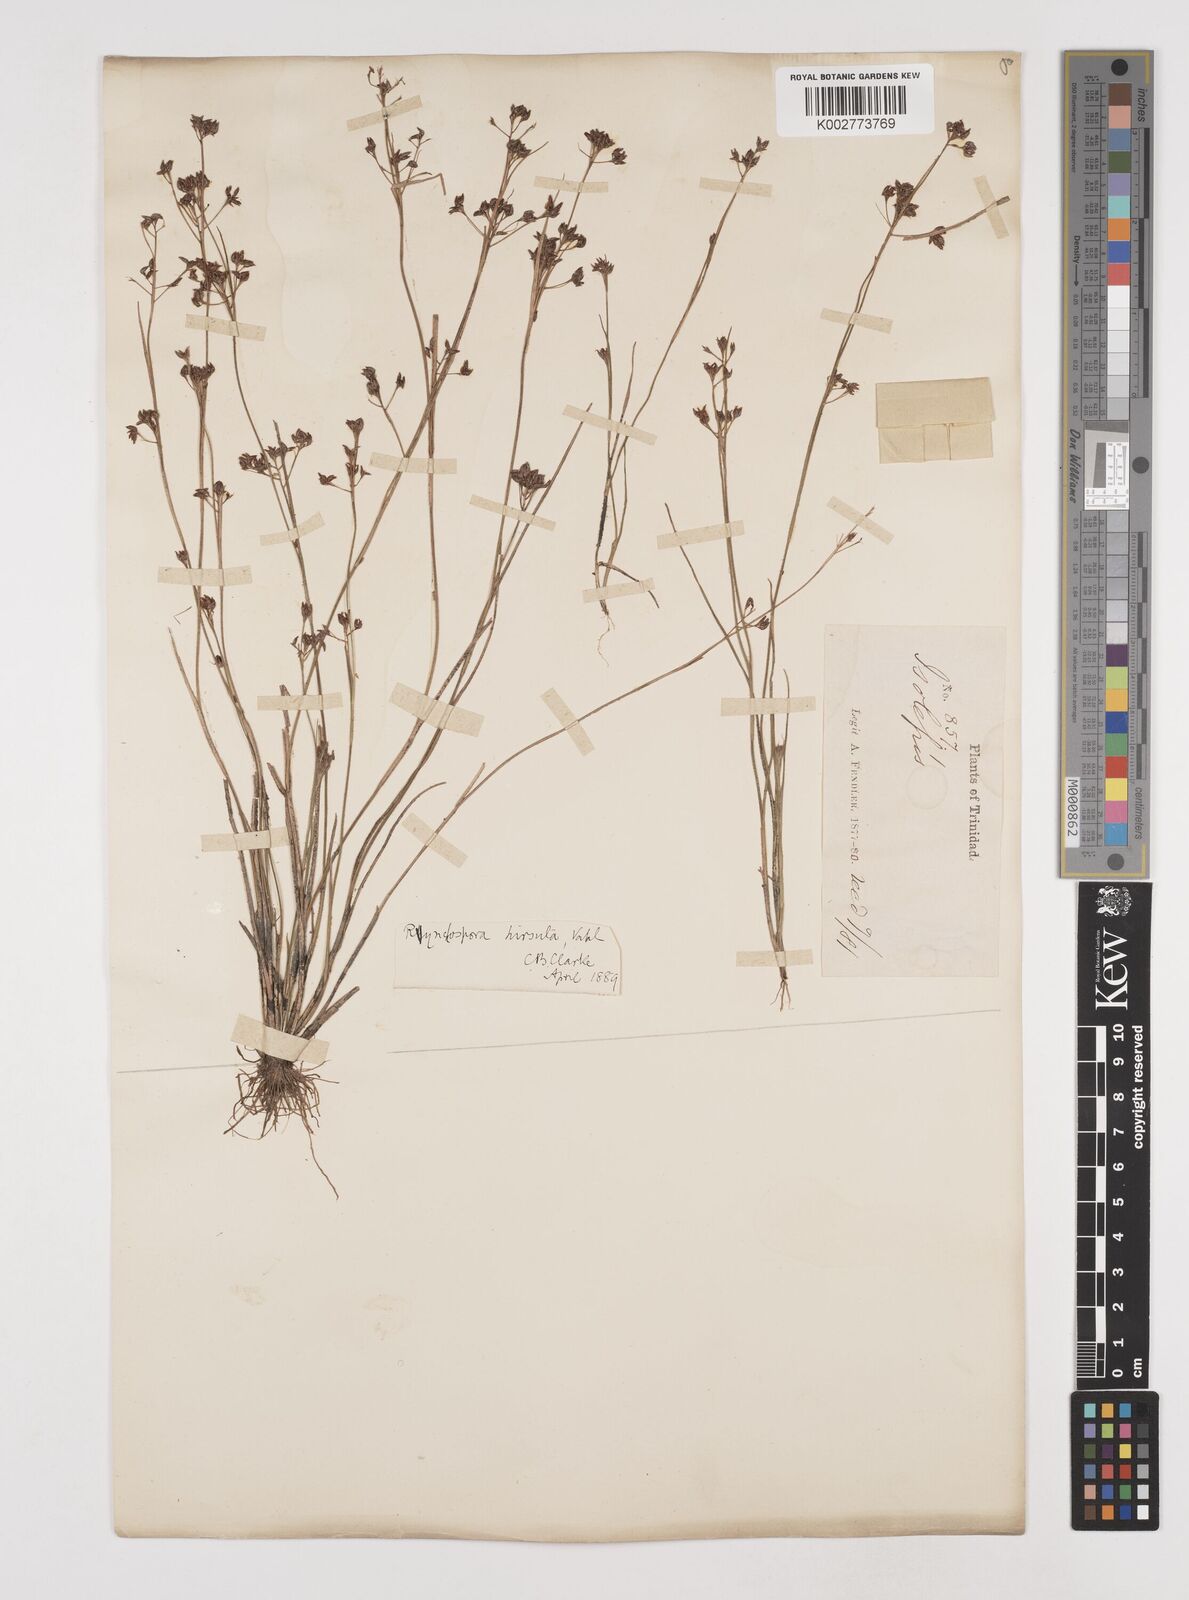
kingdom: Plantae
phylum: Tracheophyta
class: Liliopsida
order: Poales
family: Cyperaceae
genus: Rhynchospora
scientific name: Rhynchospora hirsuta
